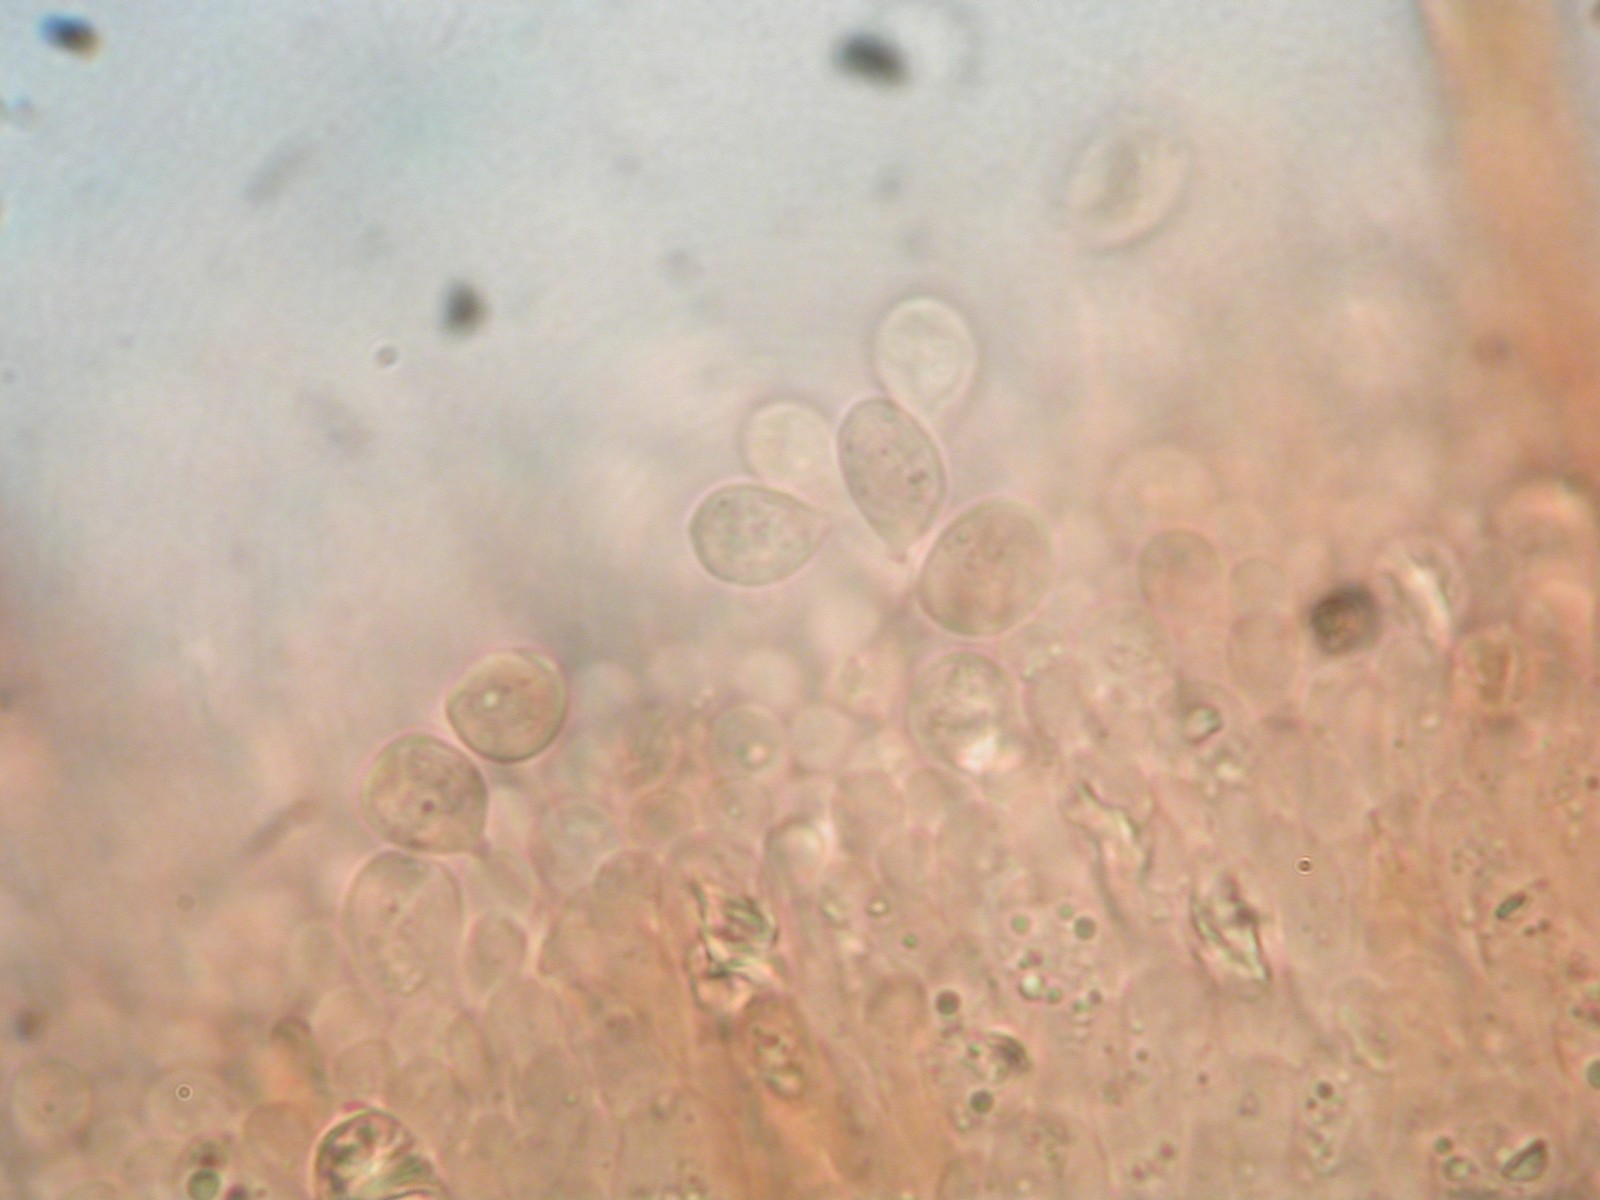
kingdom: Fungi
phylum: Basidiomycota
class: Agaricomycetes
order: Agaricales
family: Hygrophoraceae
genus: Neohygrocybe
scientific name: Neohygrocybe ovina
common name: rødmende vokshat
